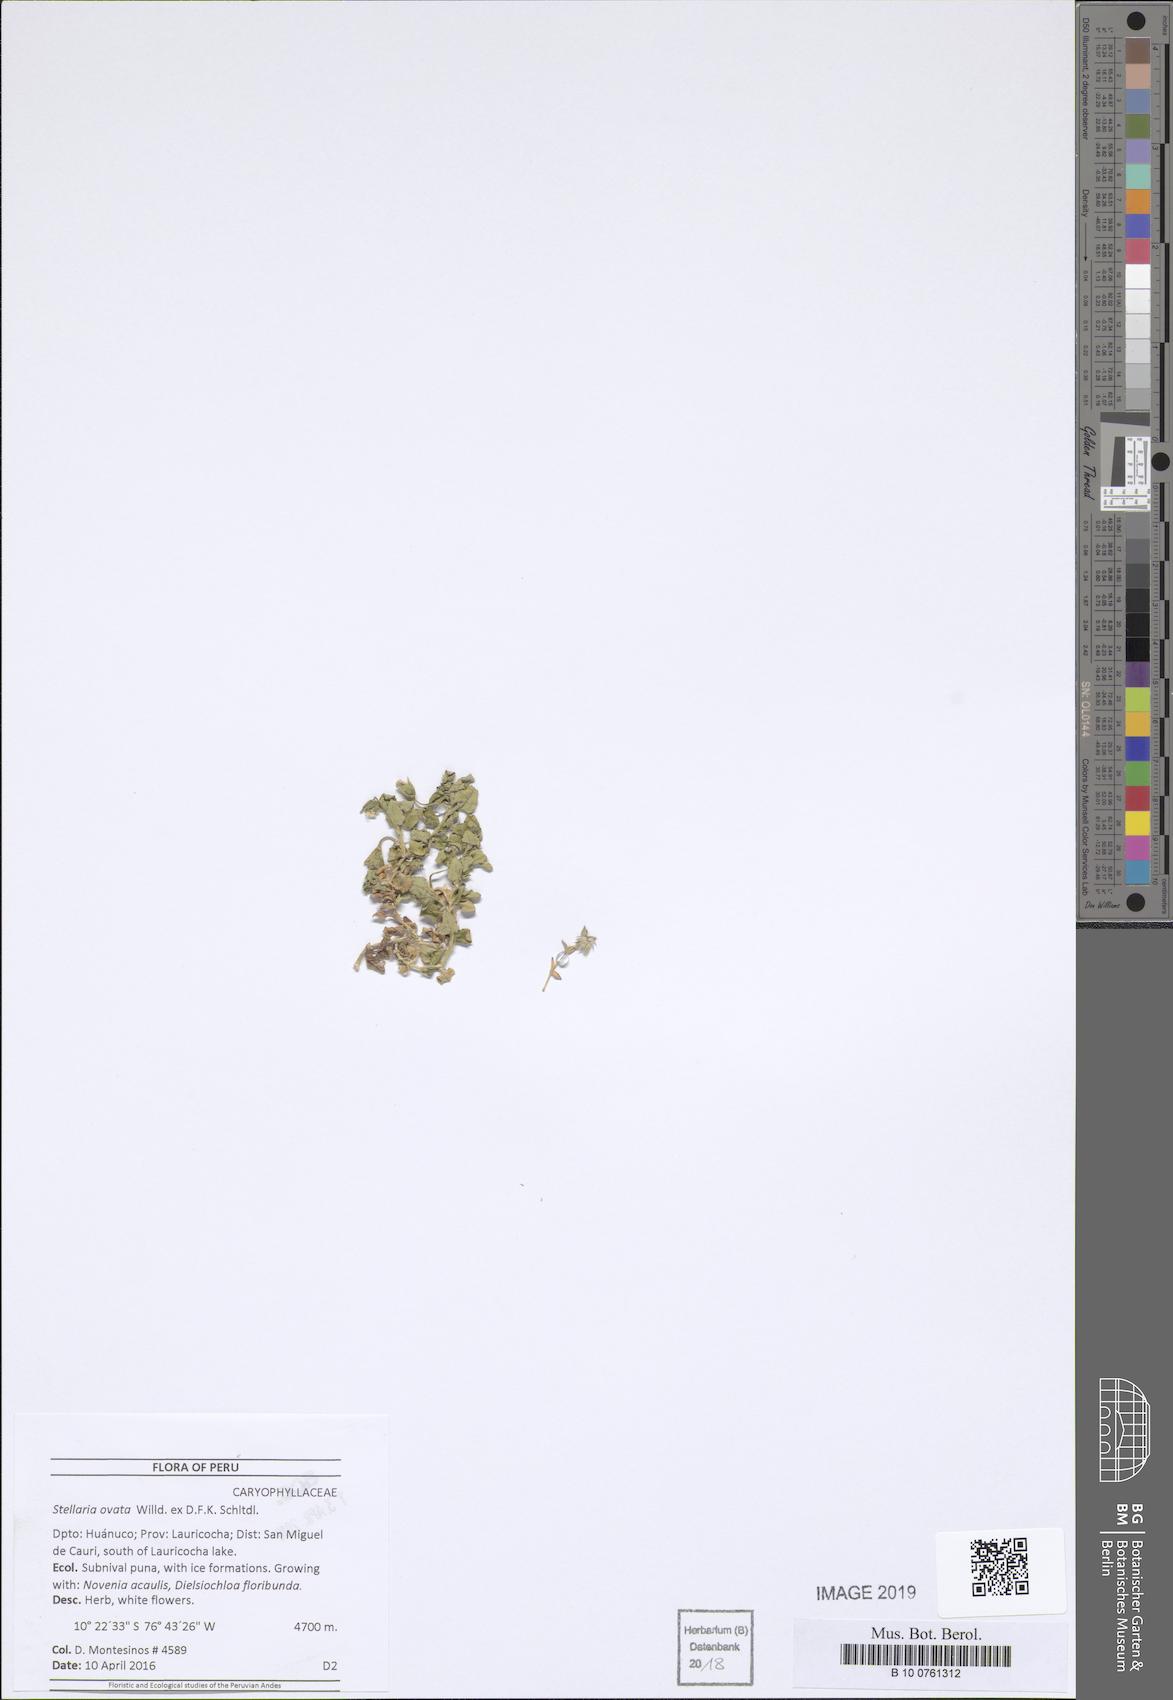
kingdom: Plantae
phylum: Tracheophyta
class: Magnoliopsida
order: Caryophyllales
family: Caryophyllaceae
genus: Stellaria
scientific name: Stellaria ovata
